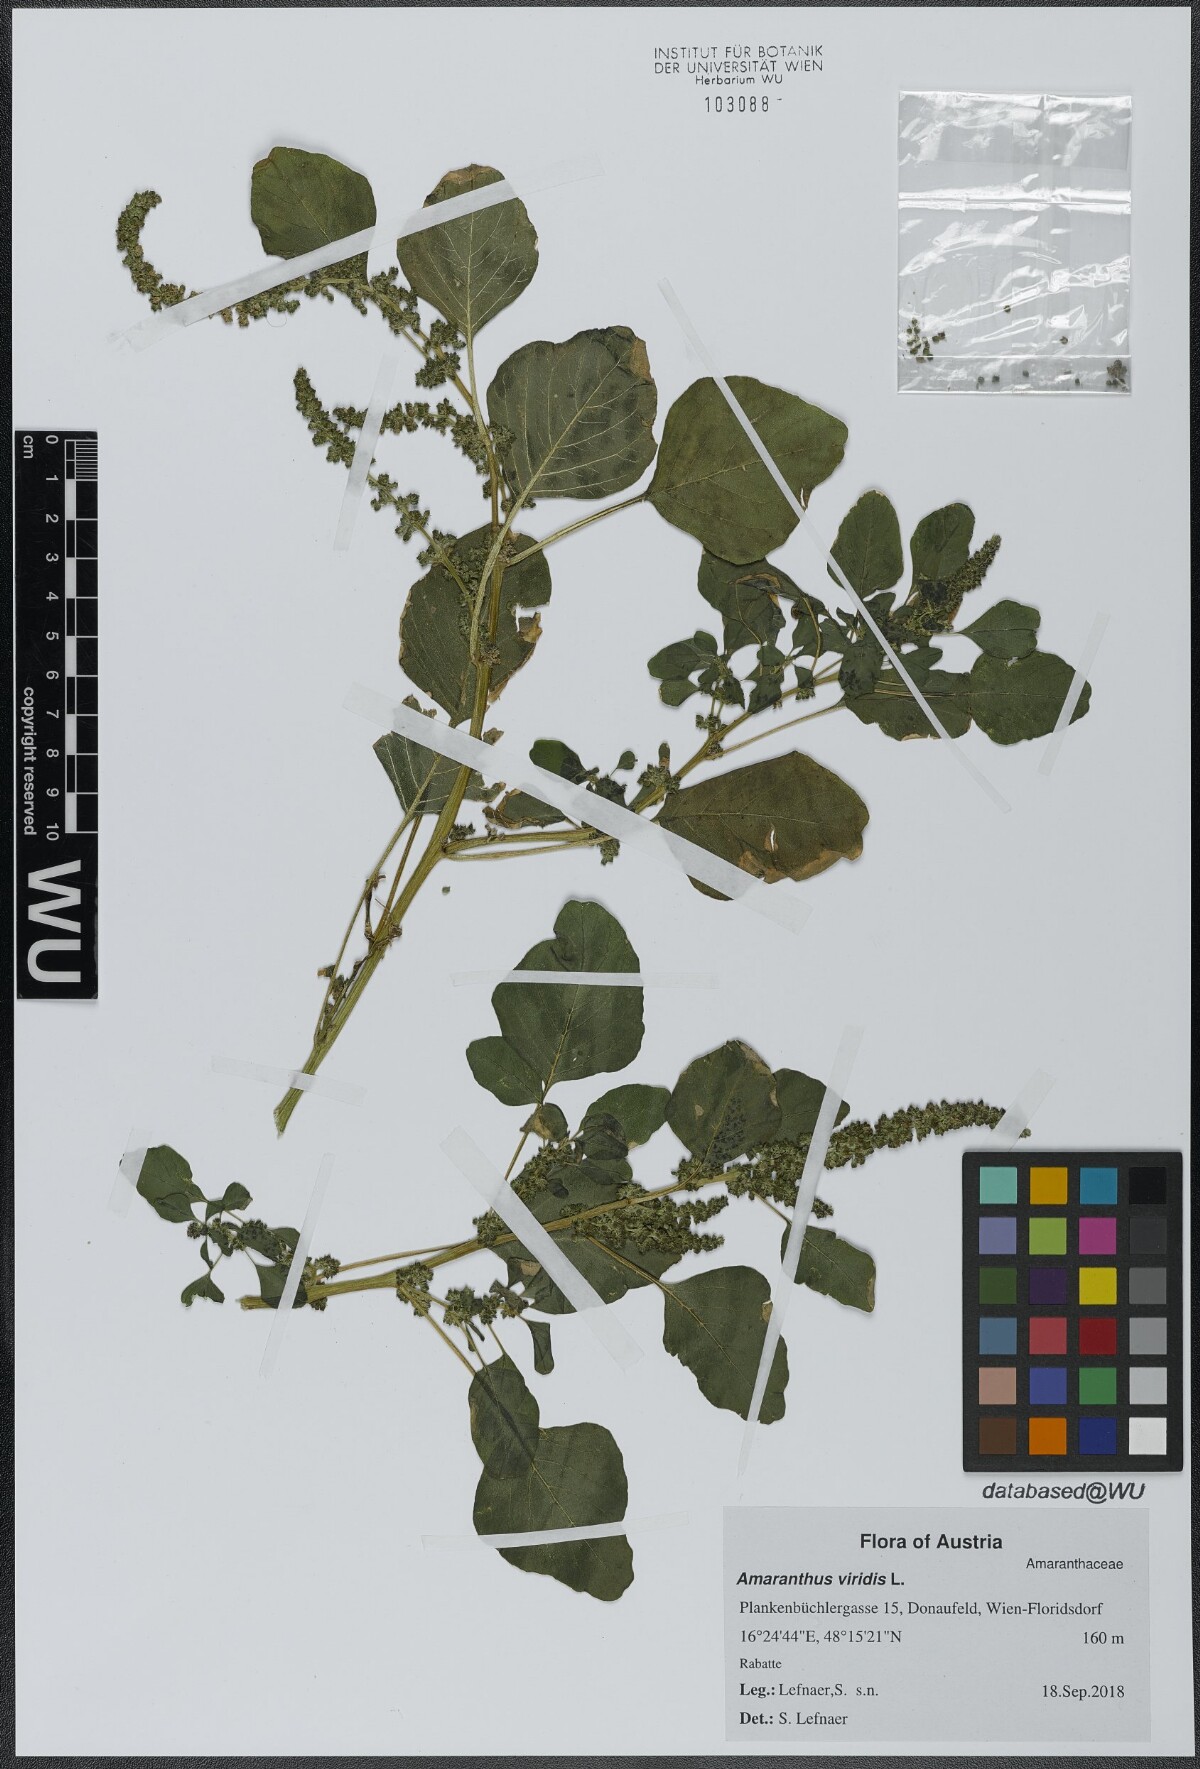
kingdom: Plantae
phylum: Tracheophyta
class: Magnoliopsida
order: Caryophyllales
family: Amaranthaceae
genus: Amaranthus
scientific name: Amaranthus viridis
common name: Slender amaranth
